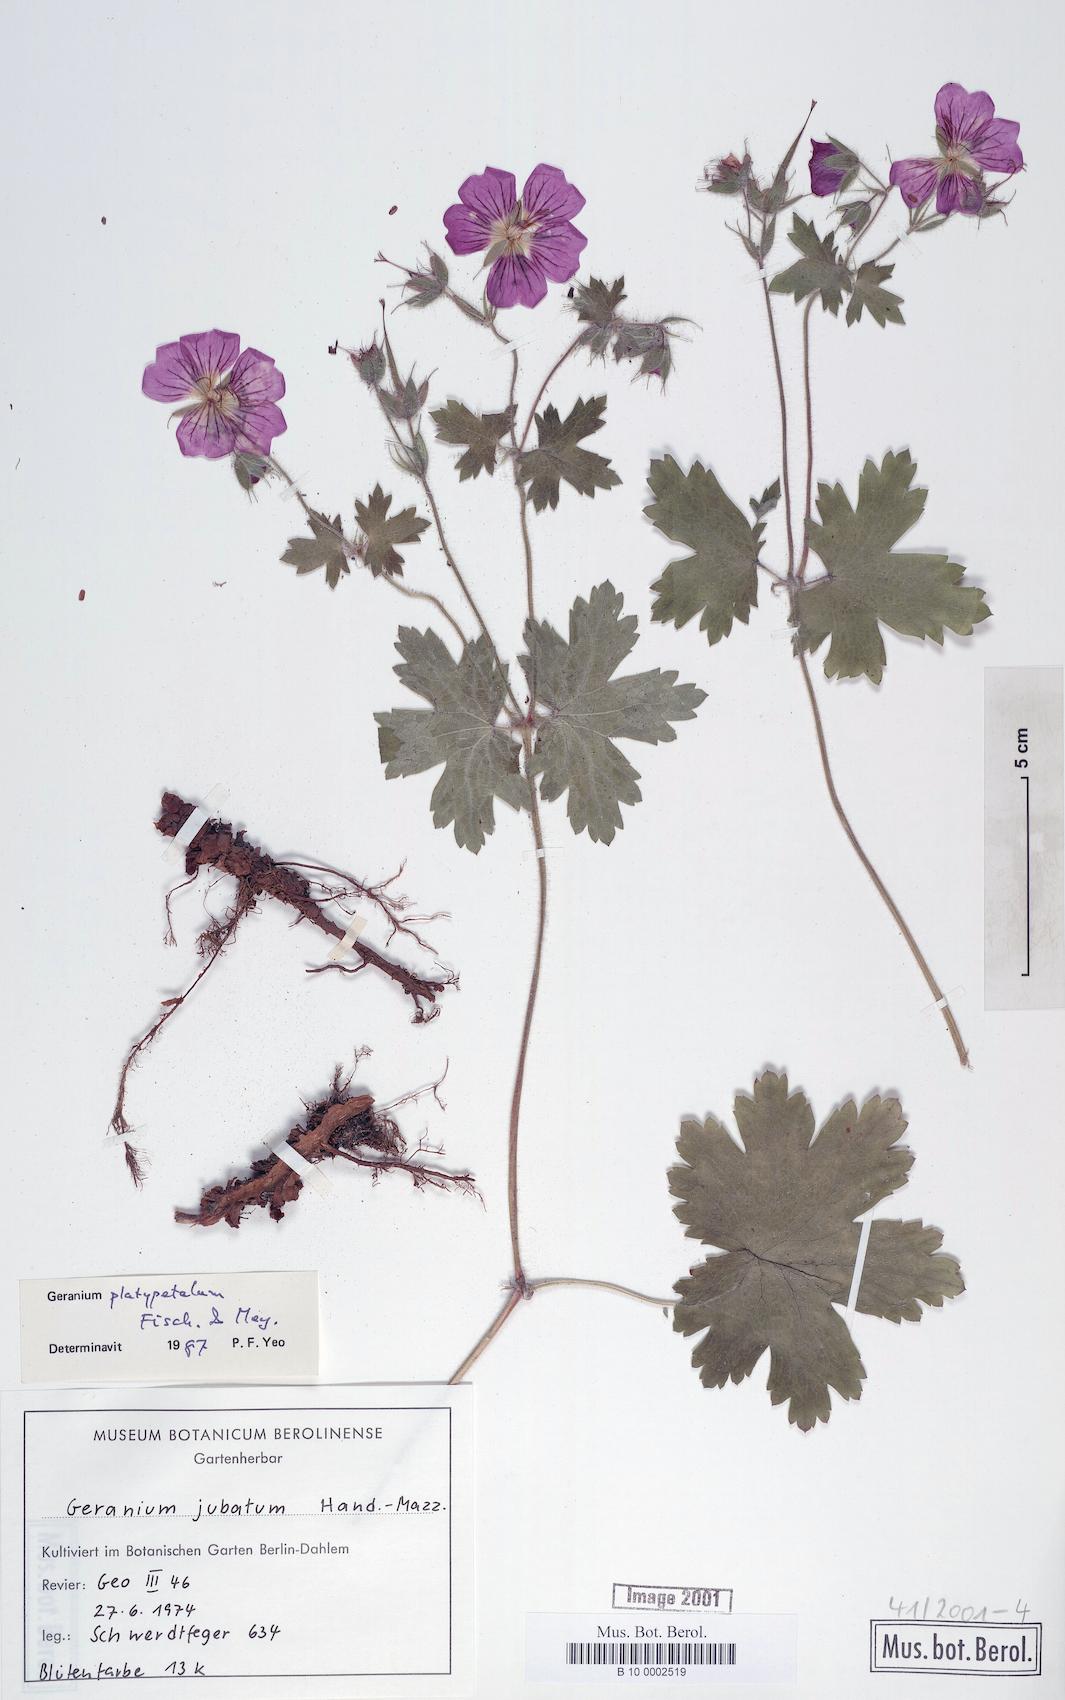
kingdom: Plantae
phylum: Tracheophyta
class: Magnoliopsida
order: Geraniales
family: Geraniaceae
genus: Geranium
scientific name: Geranium platypetalum
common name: Glandular crane's-bill
